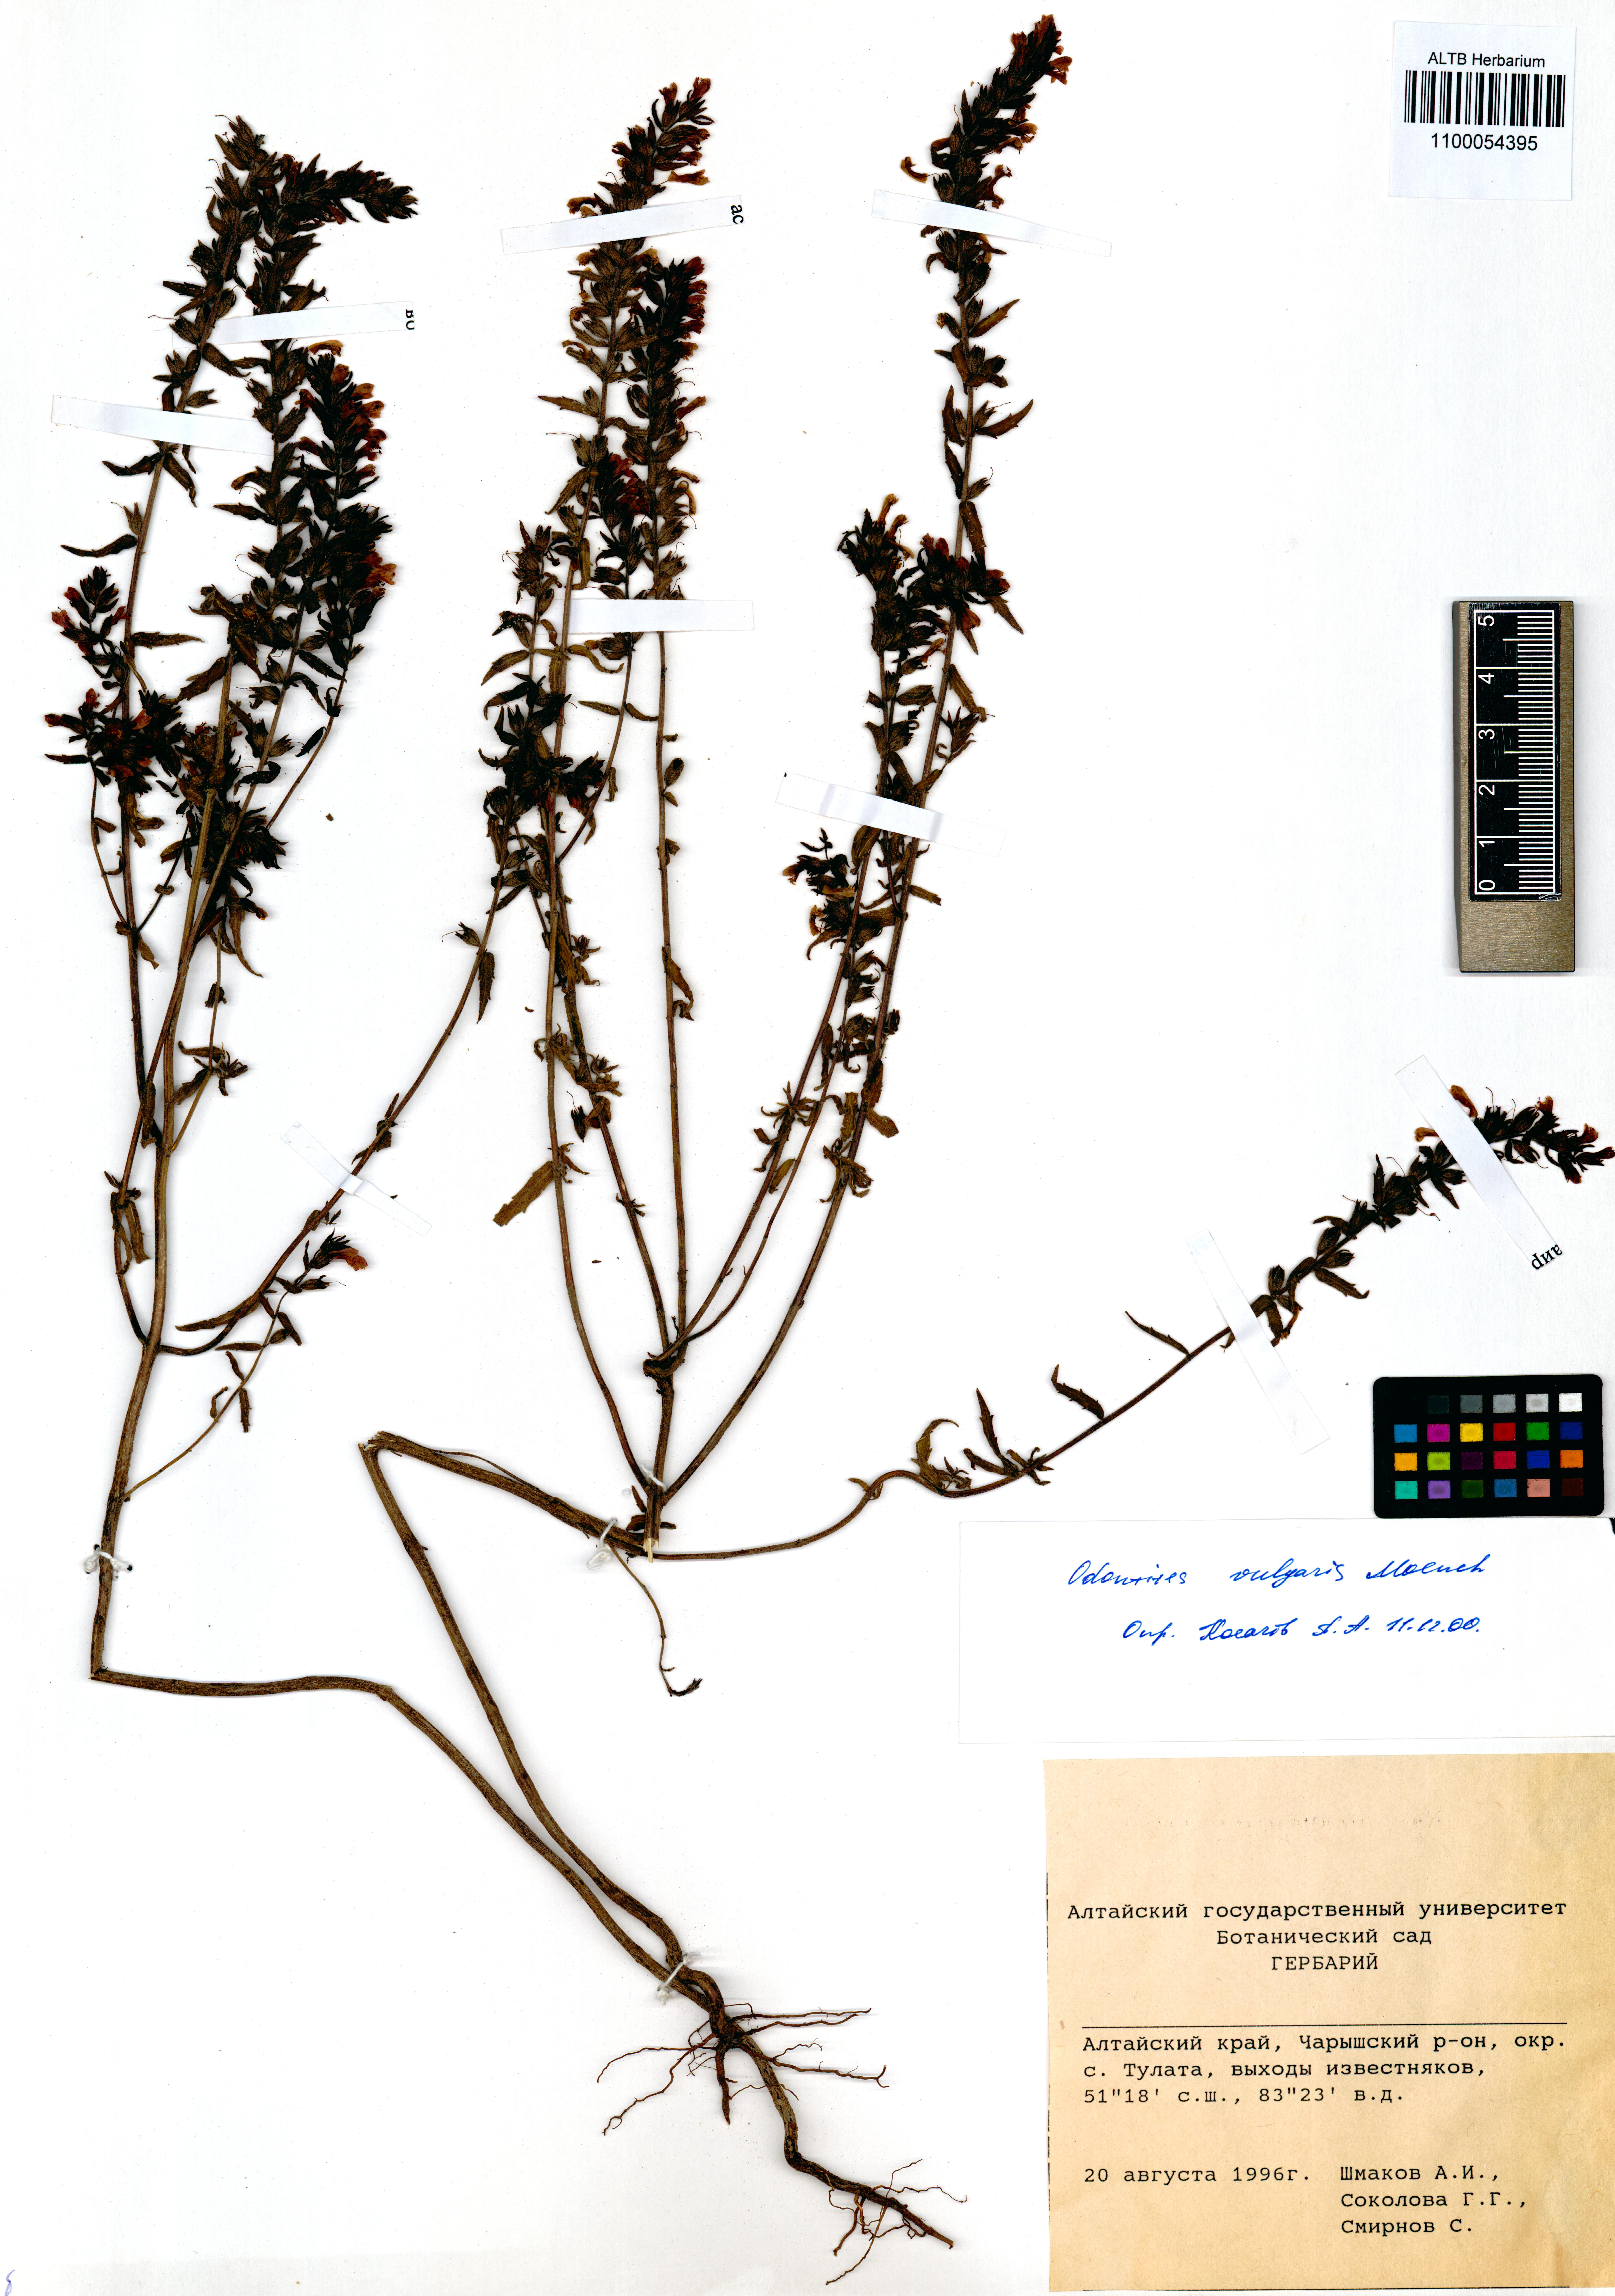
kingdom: Plantae
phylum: Tracheophyta
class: Magnoliopsida
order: Lamiales
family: Orobanchaceae
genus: Odontites
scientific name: Odontites vulgaris
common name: Broomrape
